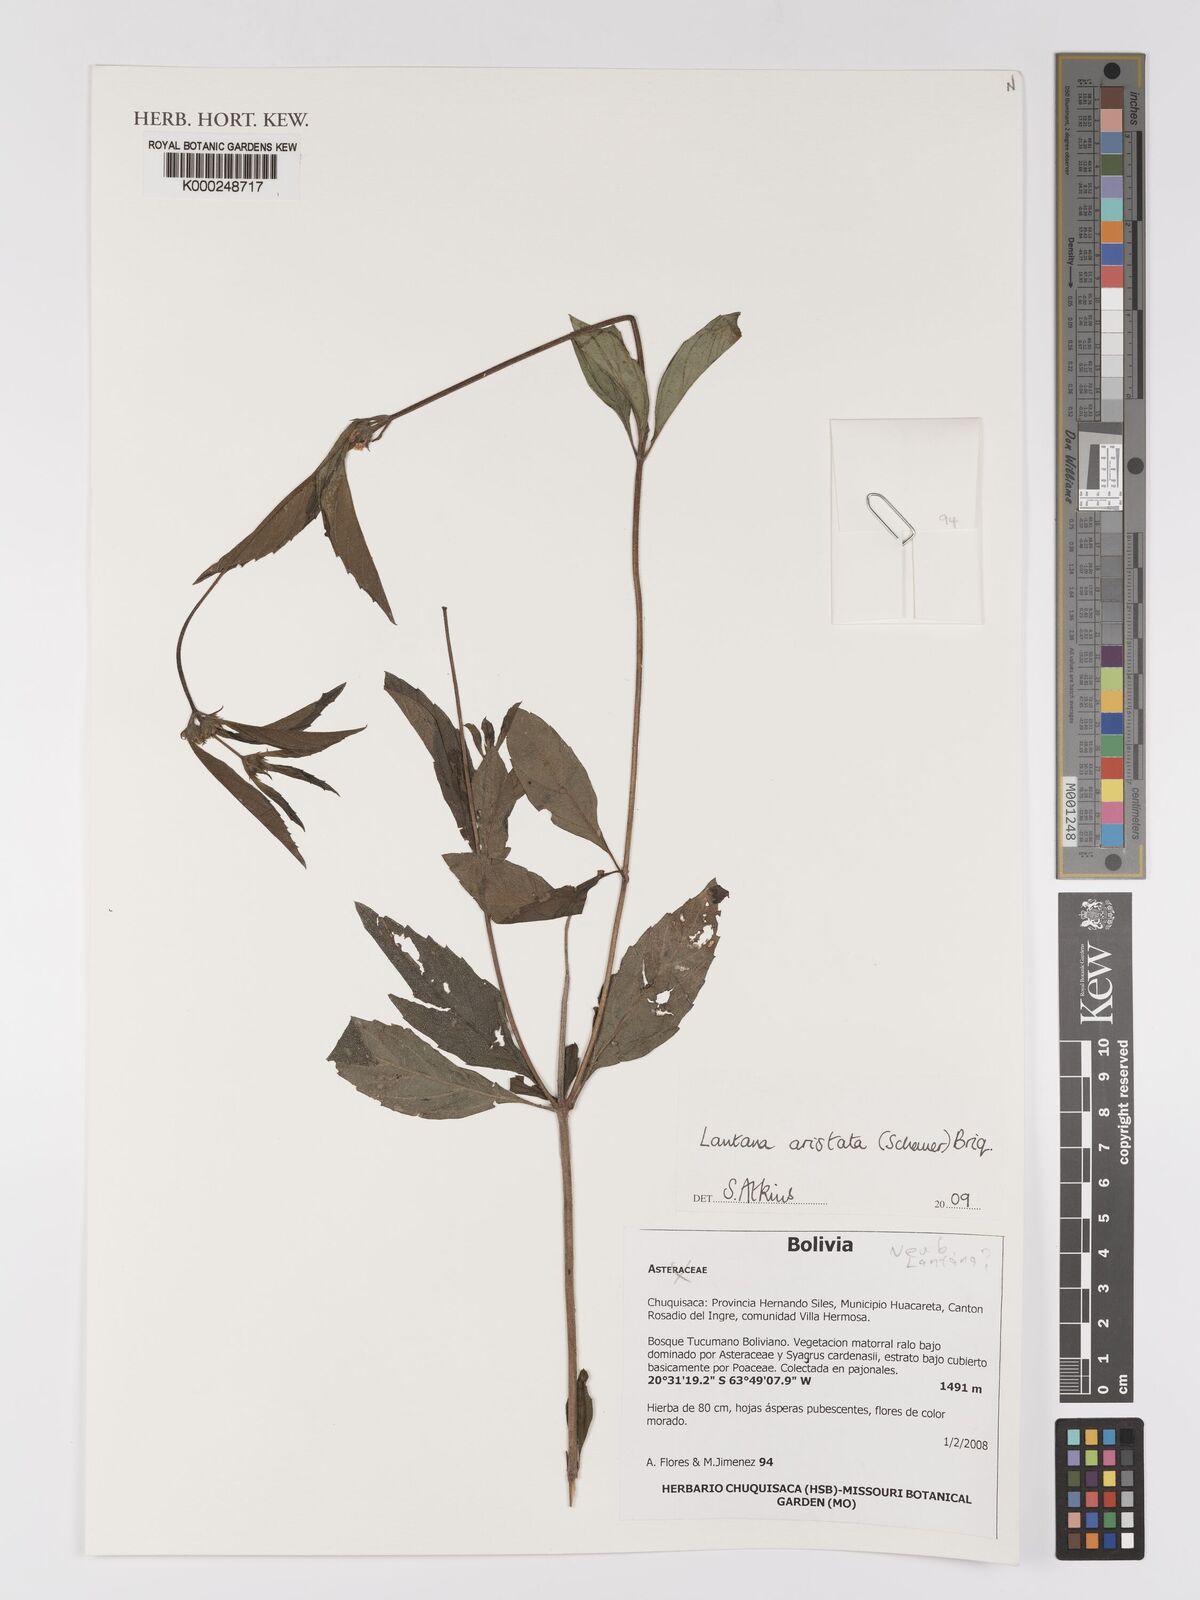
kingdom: Plantae
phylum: Tracheophyta
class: Magnoliopsida
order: Lamiales
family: Verbenaceae
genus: Lippia
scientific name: Lippia aristata
